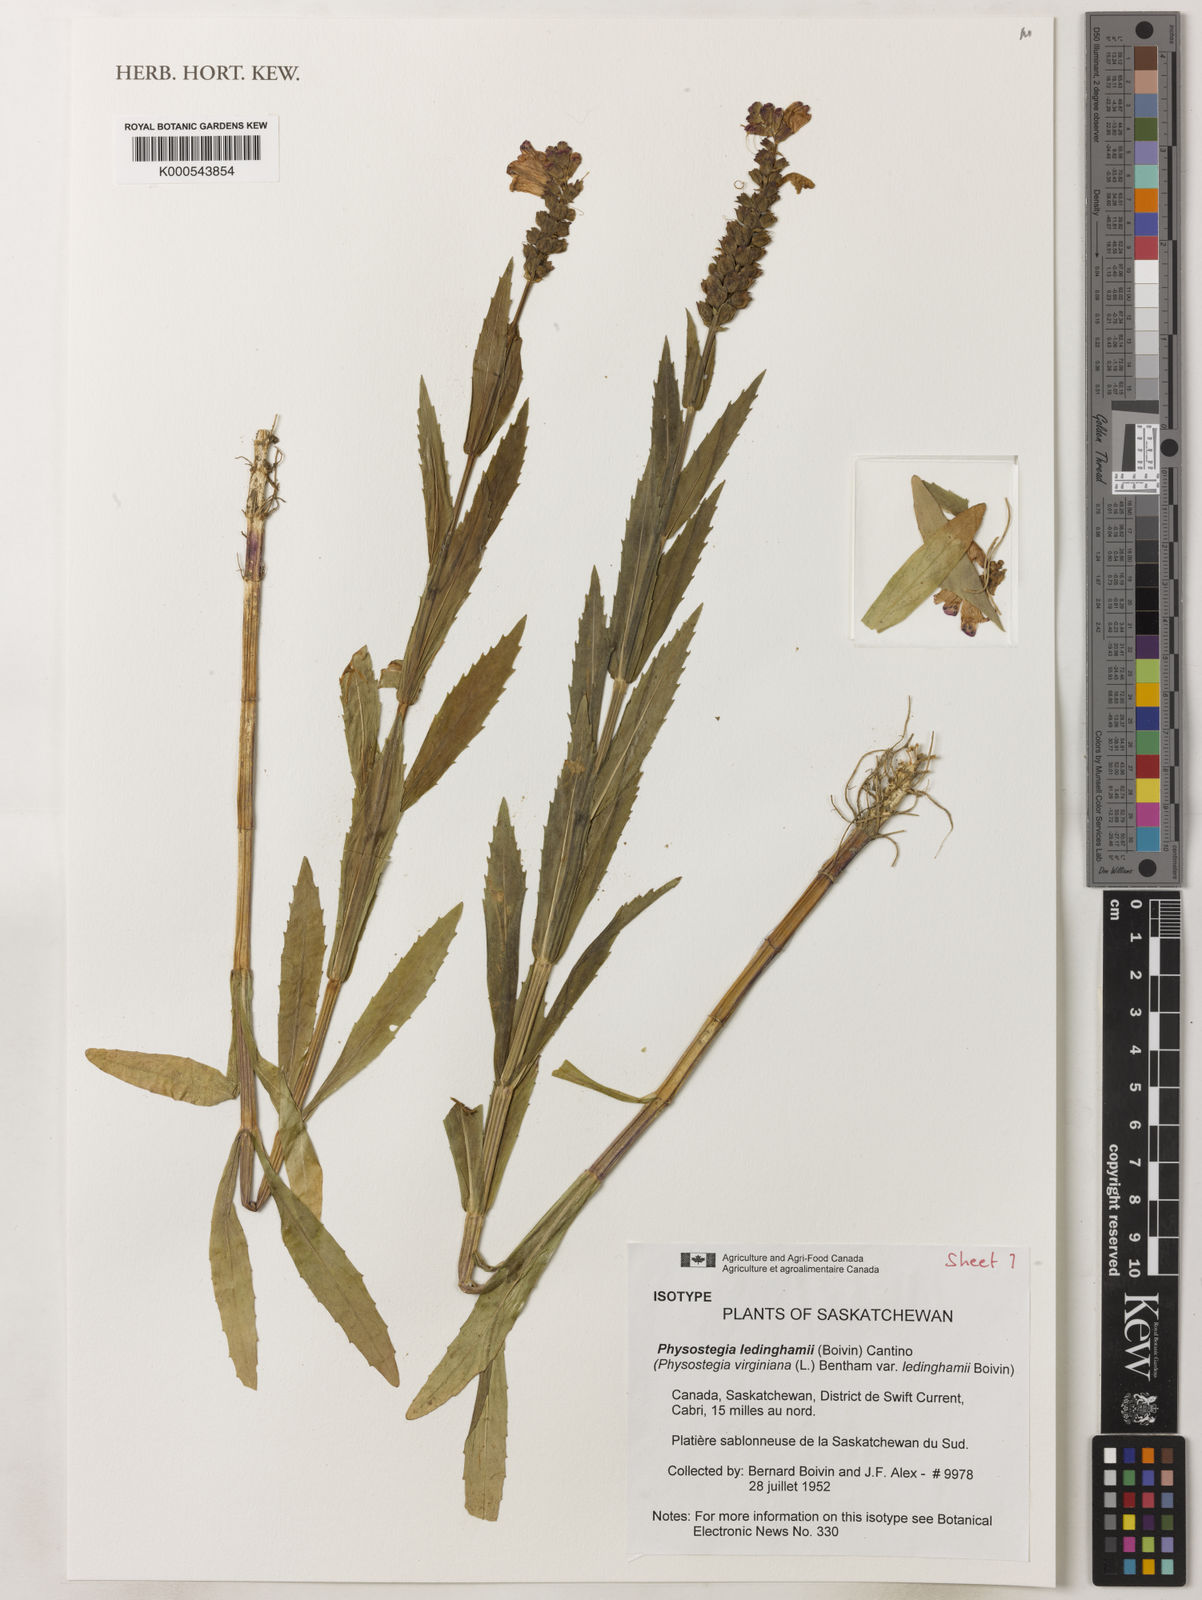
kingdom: Plantae
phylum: Tracheophyta
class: Magnoliopsida
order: Lamiales
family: Lamiaceae
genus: Physostegia
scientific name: Physostegia ledinghamii
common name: Ledingham's false dragonhead
